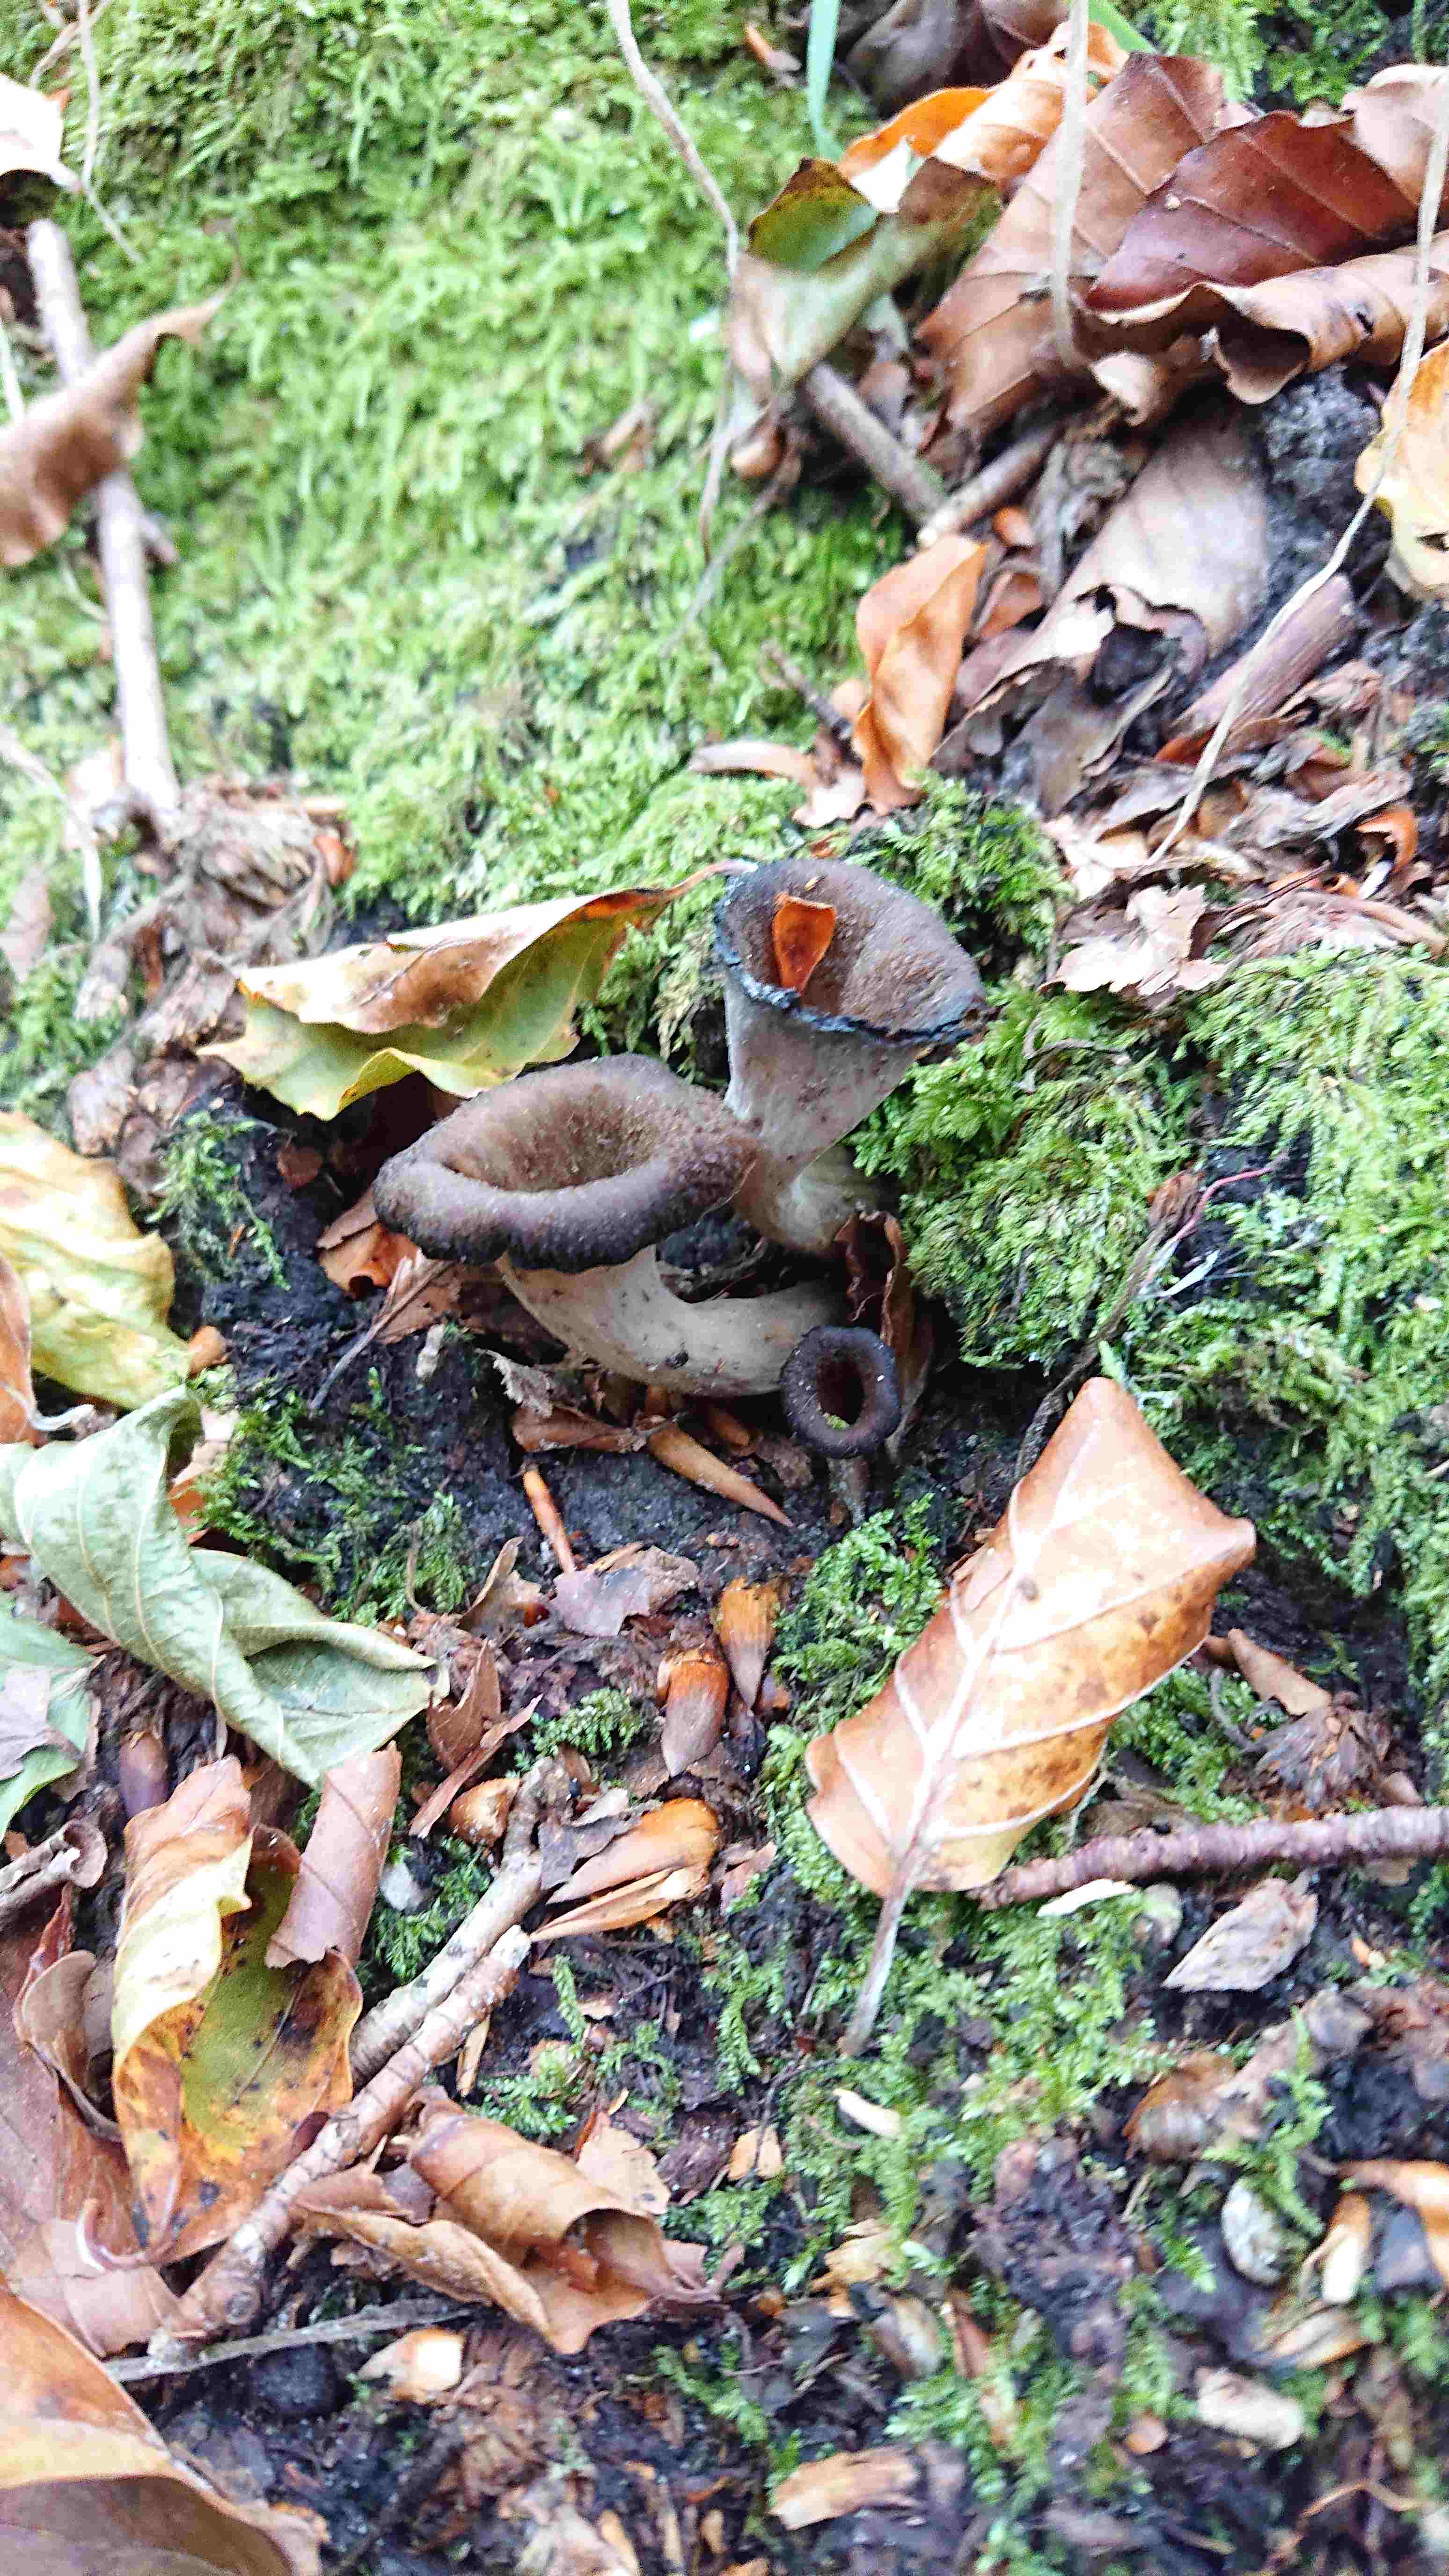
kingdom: Fungi
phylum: Basidiomycota
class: Agaricomycetes
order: Cantharellales
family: Hydnaceae
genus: Craterellus
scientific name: Craterellus cornucopioides
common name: trompetsvamp
